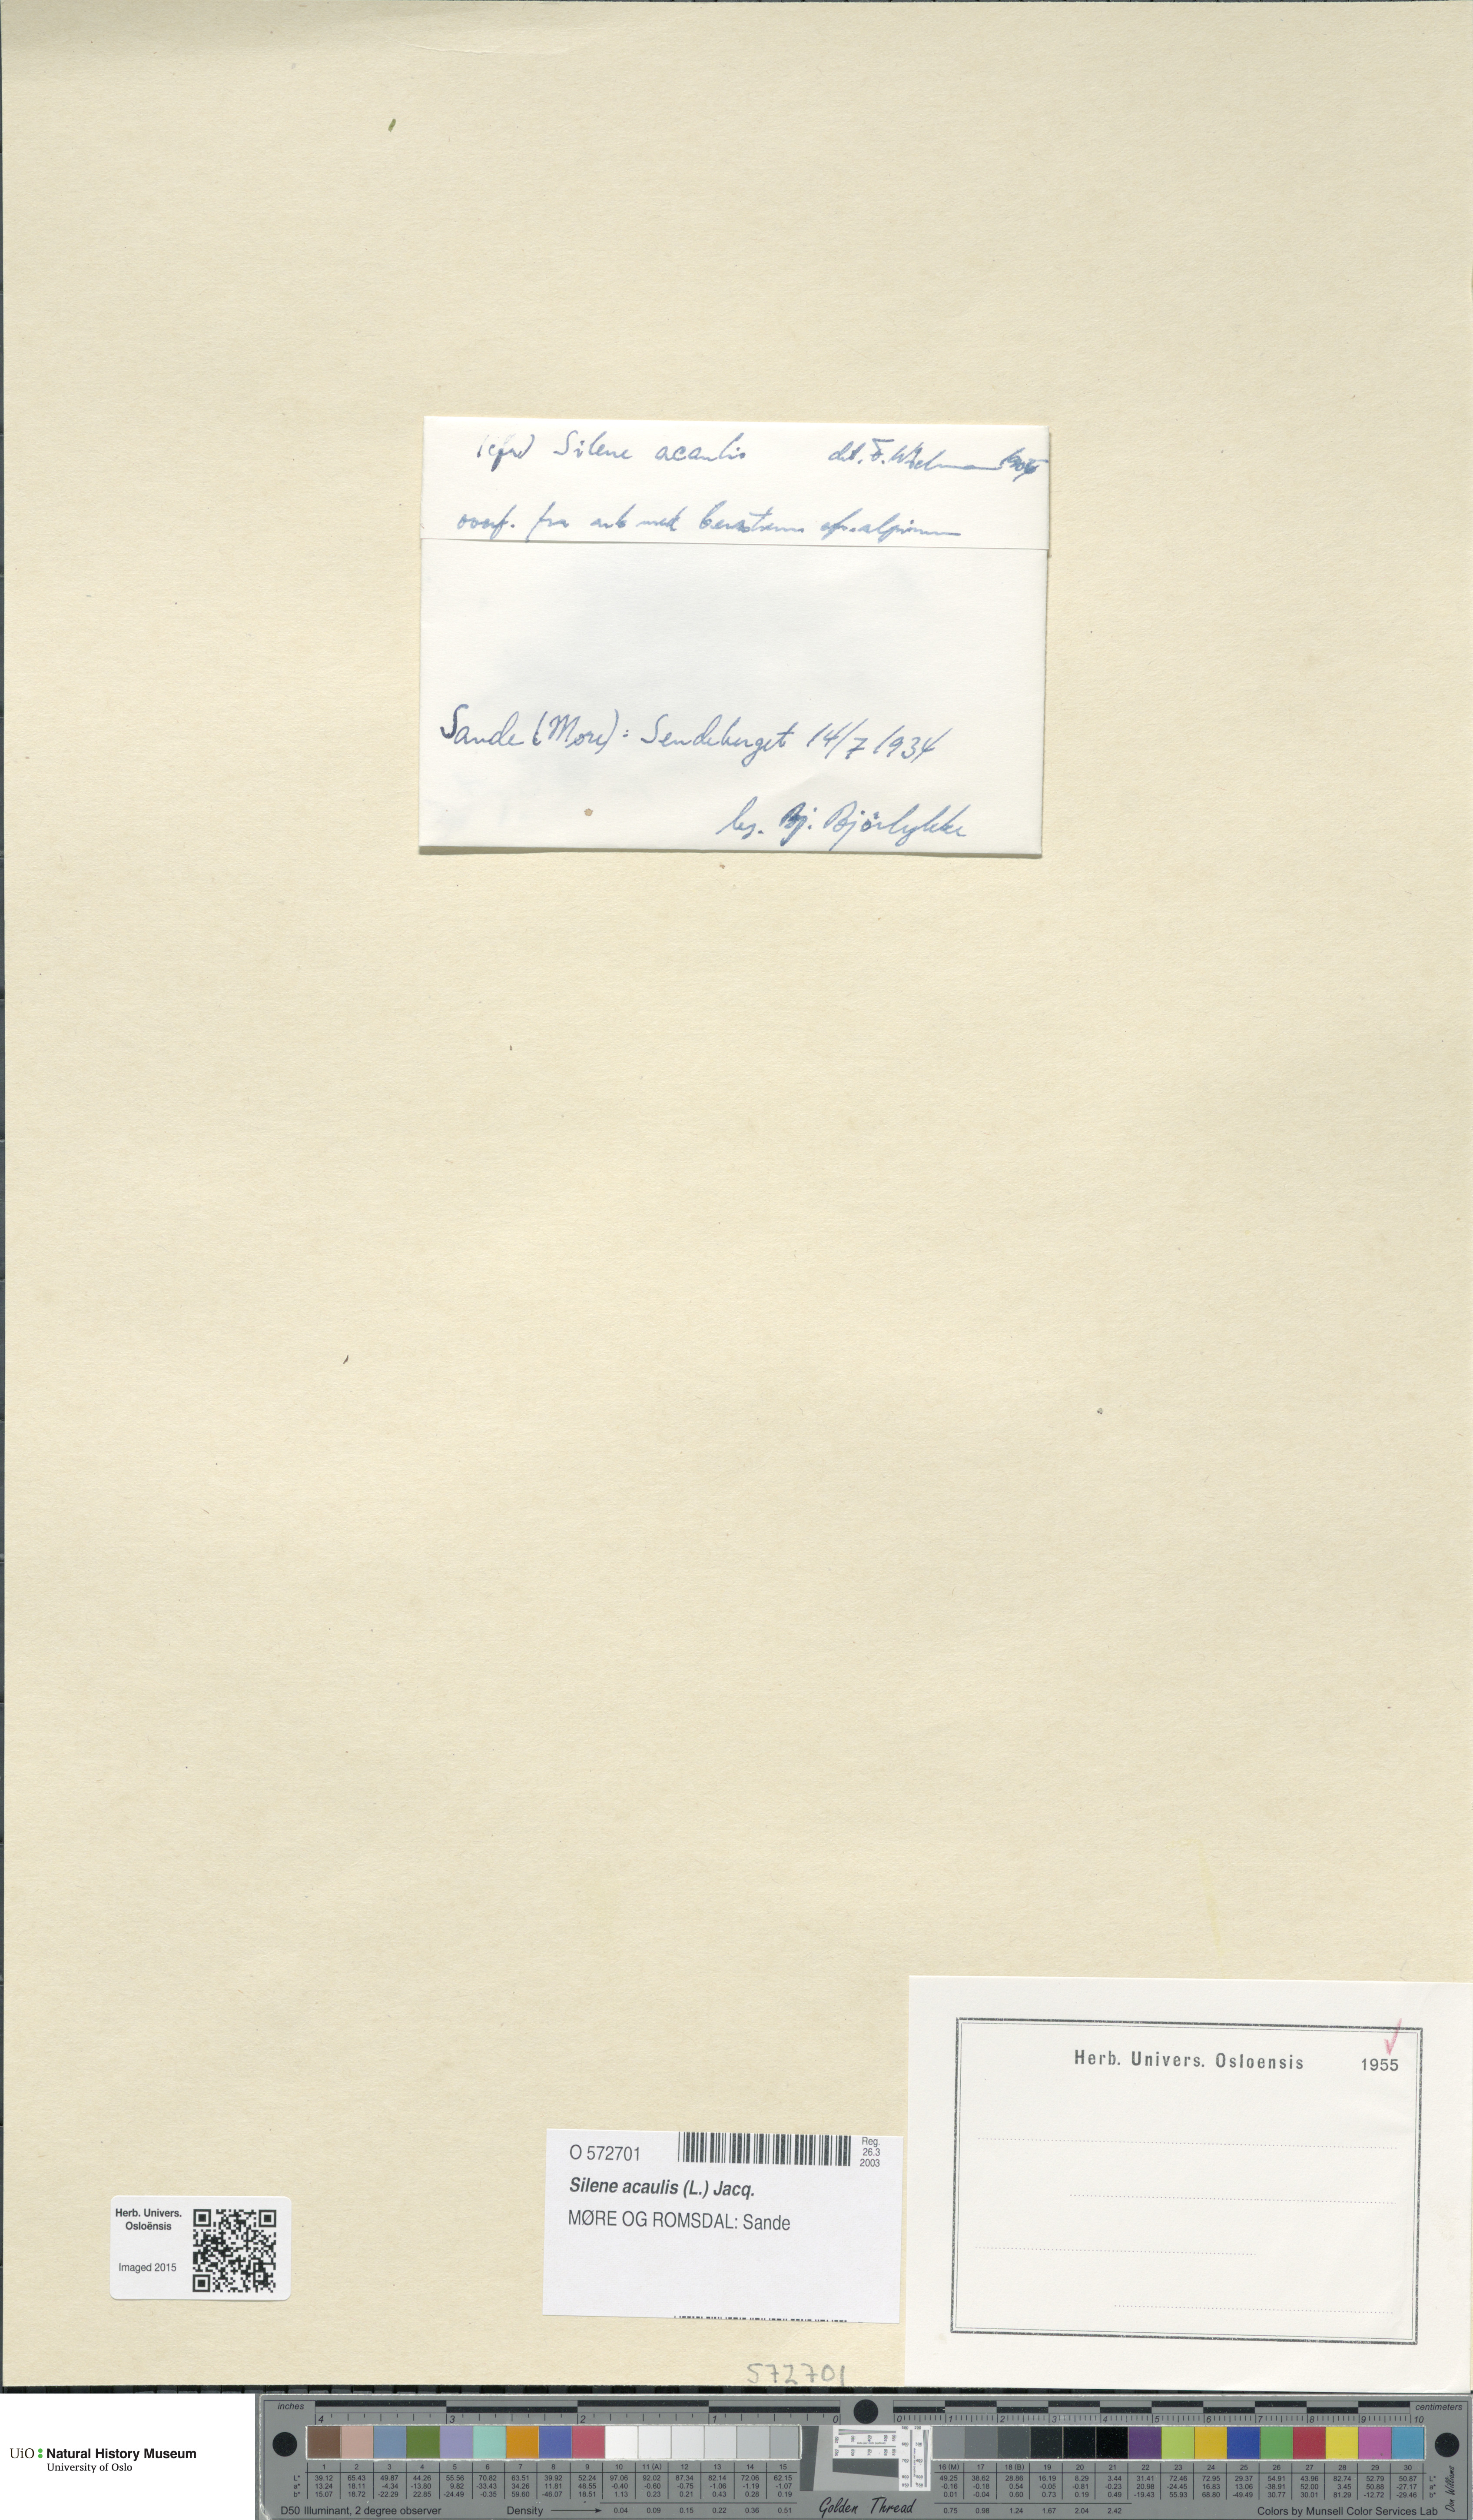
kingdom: Plantae
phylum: Tracheophyta
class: Magnoliopsida
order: Caryophyllales
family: Caryophyllaceae
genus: Silene
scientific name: Silene acaulis
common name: Moss campion
